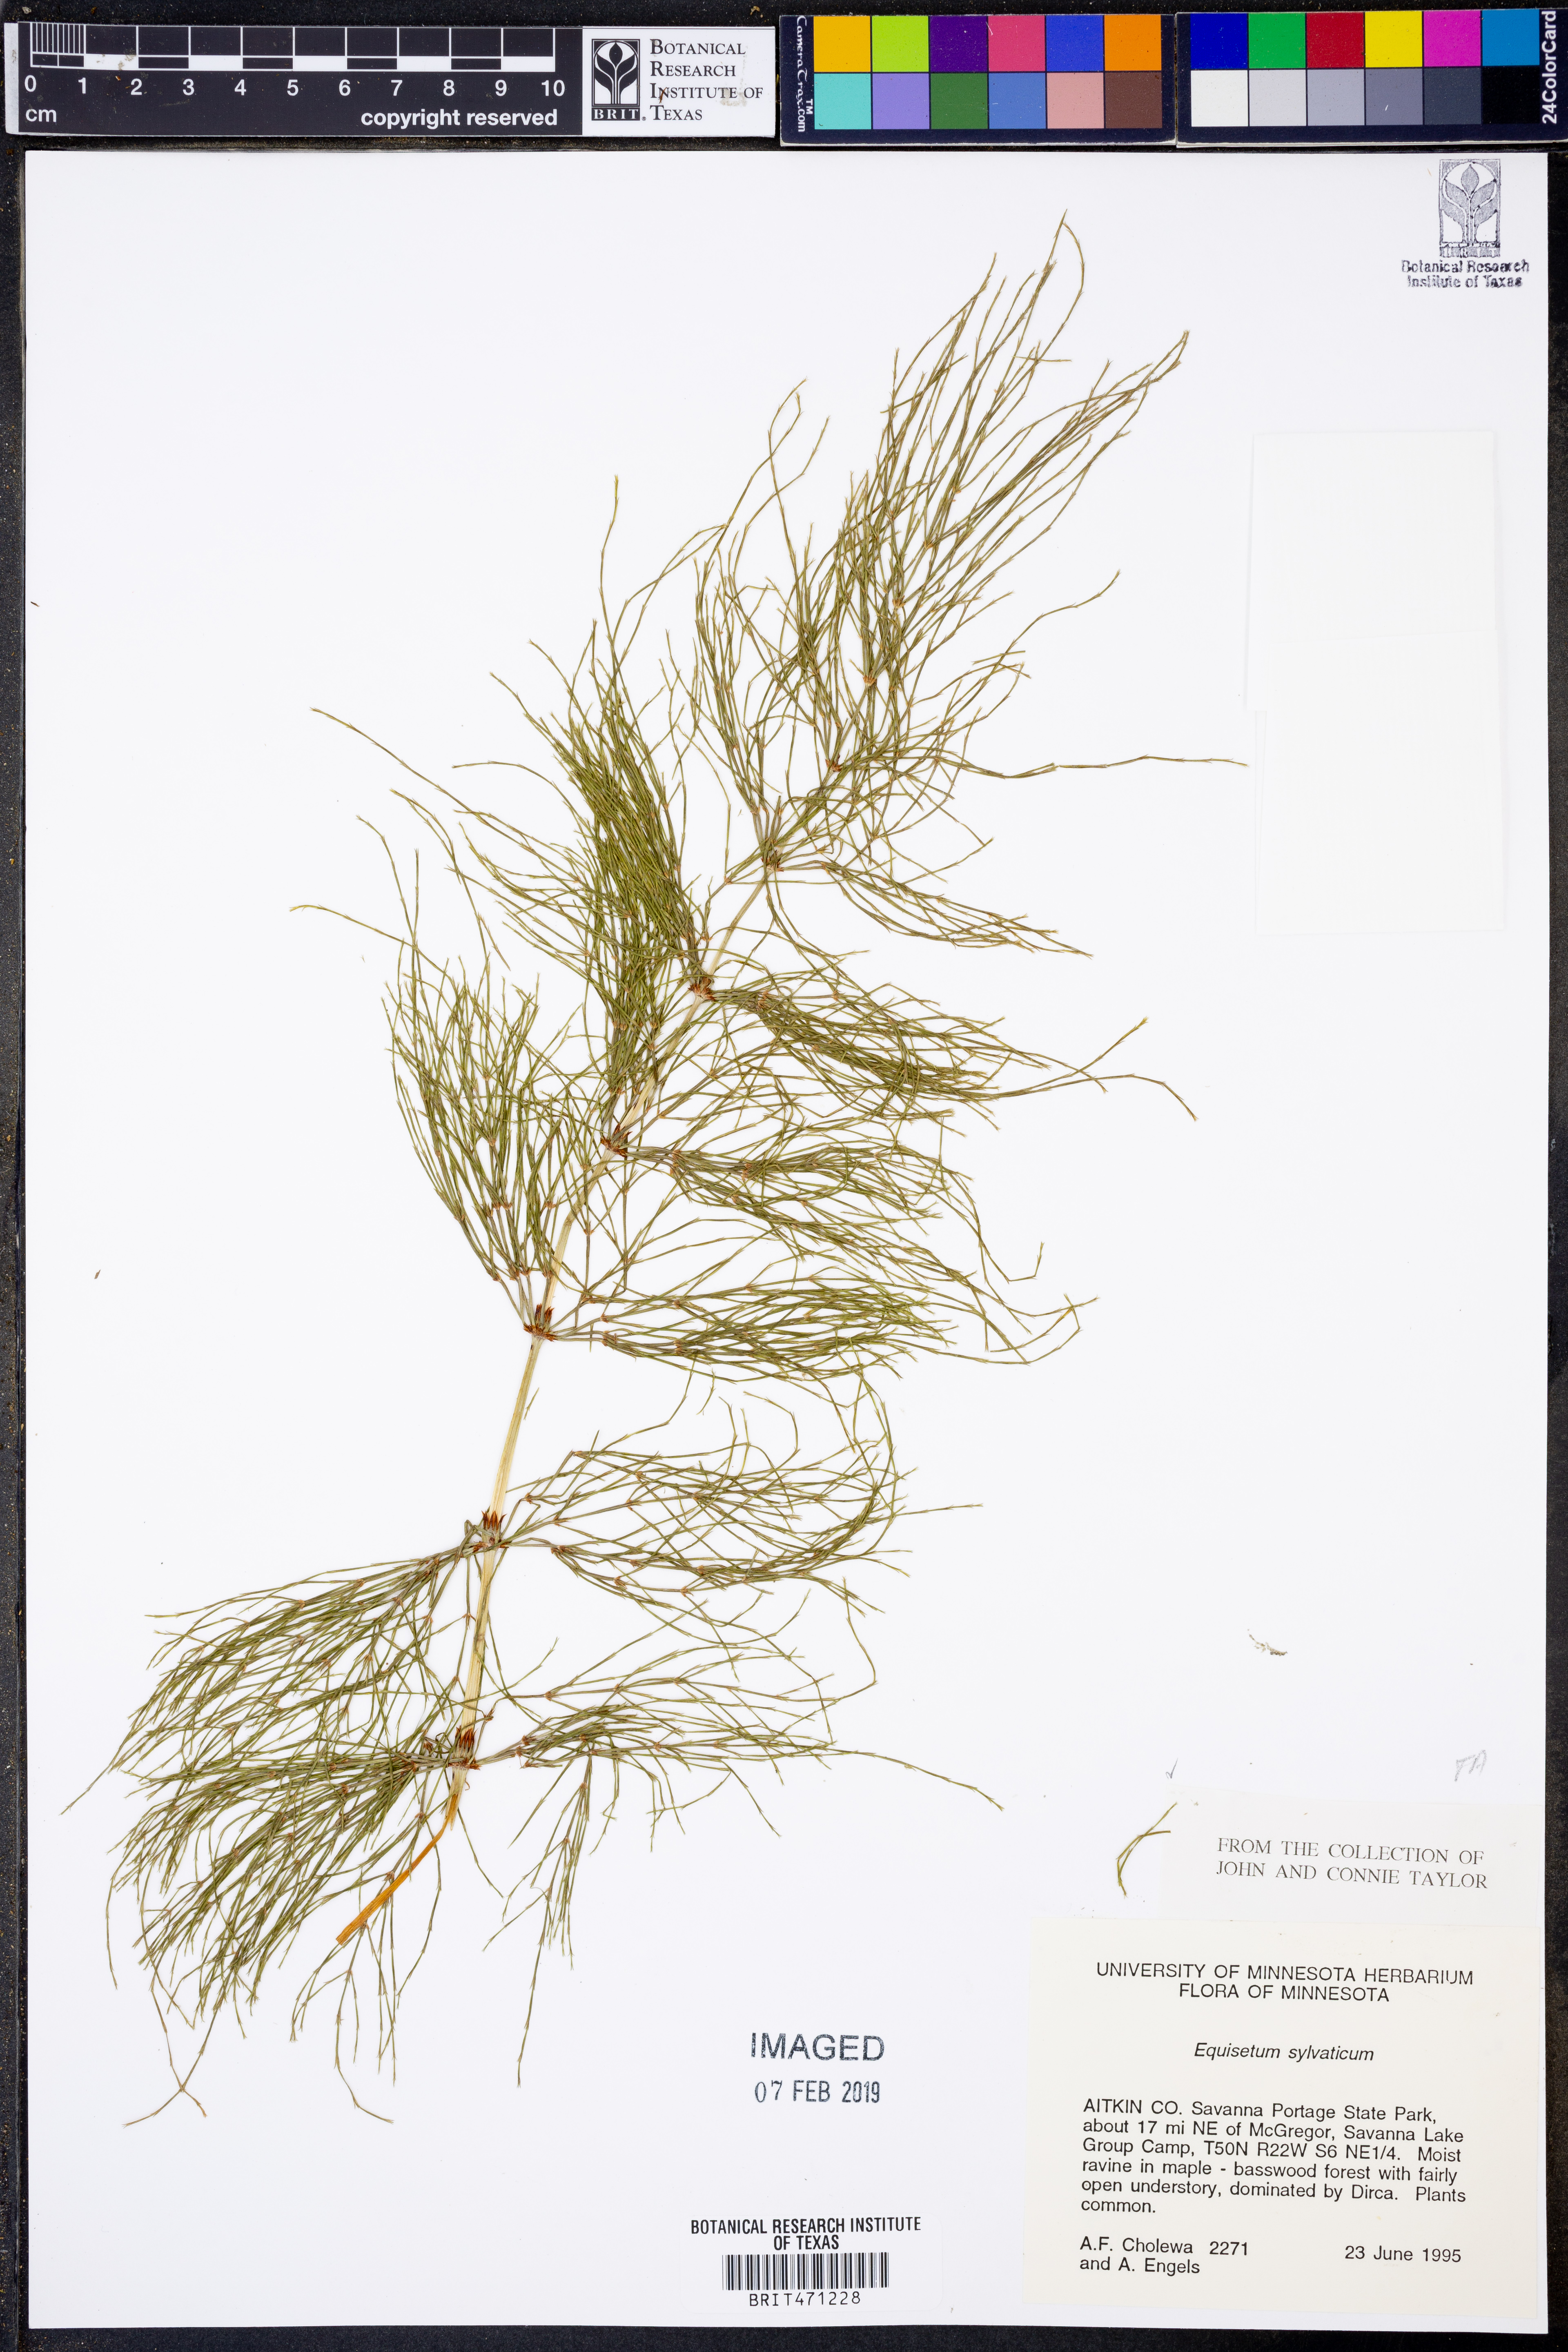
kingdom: Plantae
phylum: Tracheophyta
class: Polypodiopsida
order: Equisetales
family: Equisetaceae
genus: Equisetum
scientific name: Equisetum sylvaticum
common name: Wood horsetail
